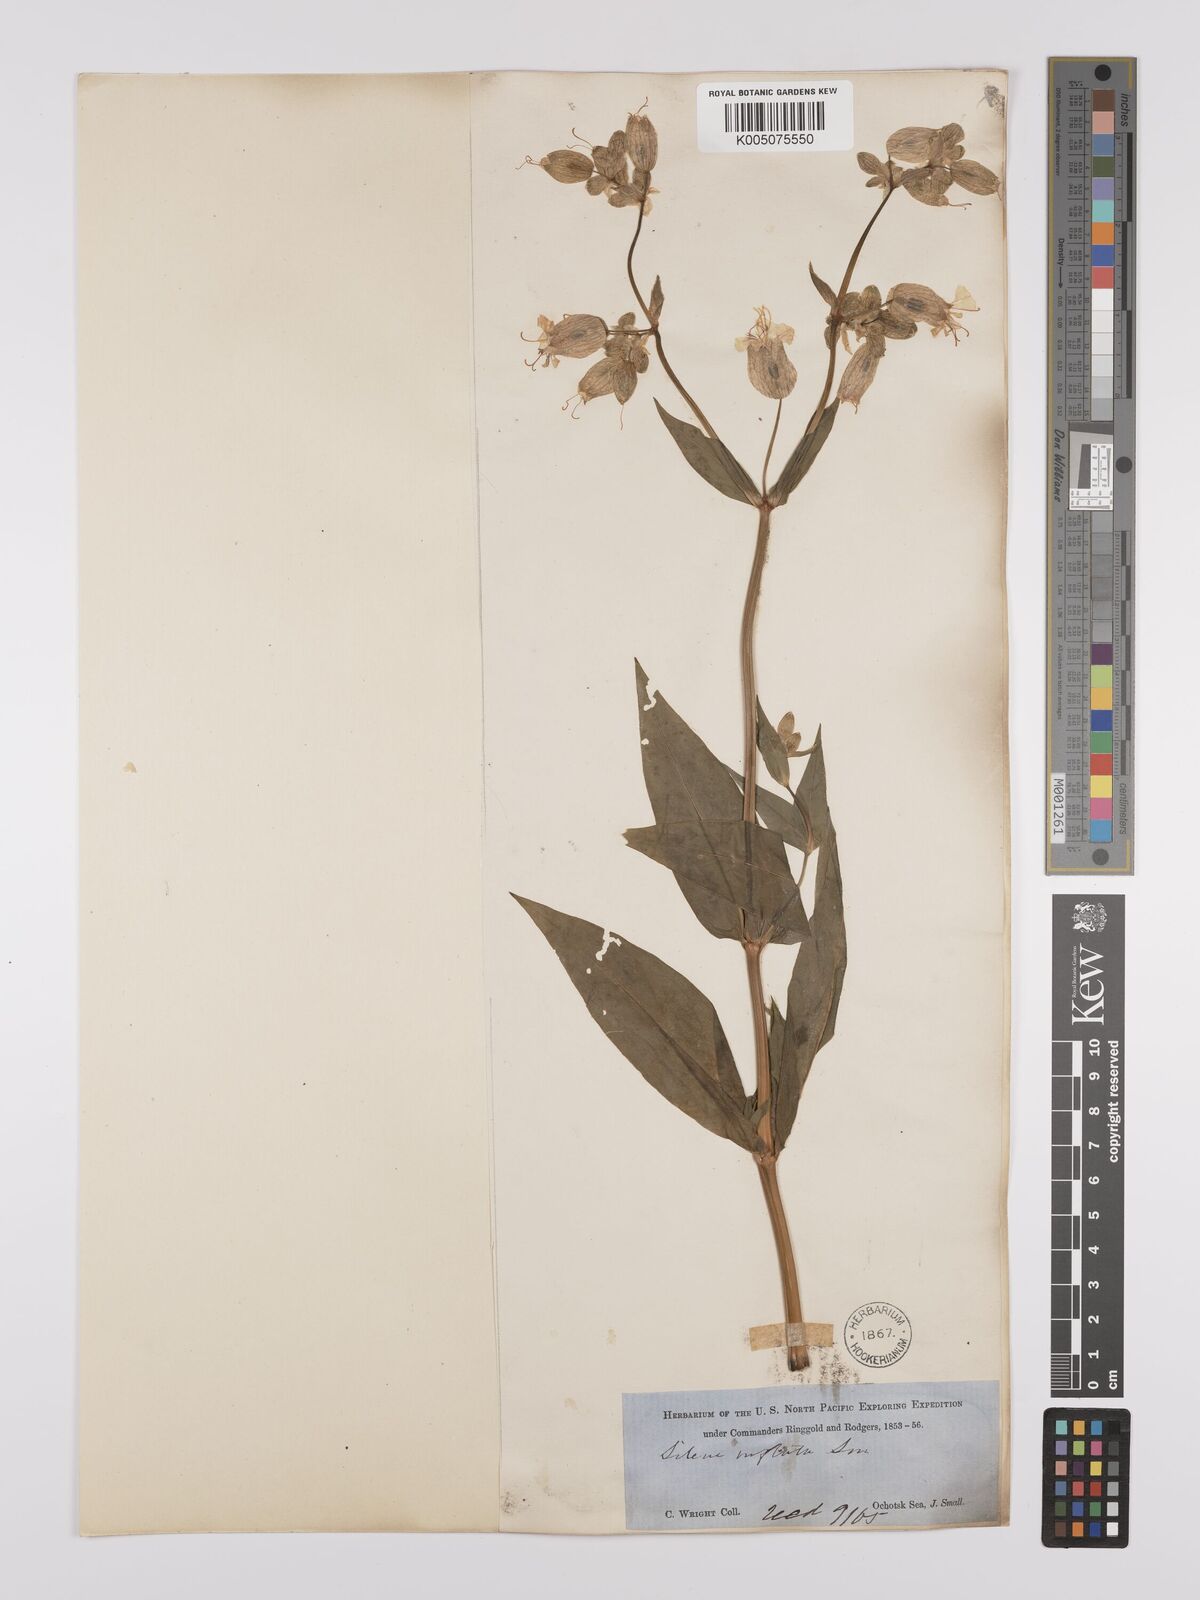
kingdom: Plantae
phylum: Tracheophyta
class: Magnoliopsida
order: Caryophyllales
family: Caryophyllaceae
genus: Silene
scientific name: Silene vulgaris
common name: Bladder campion
